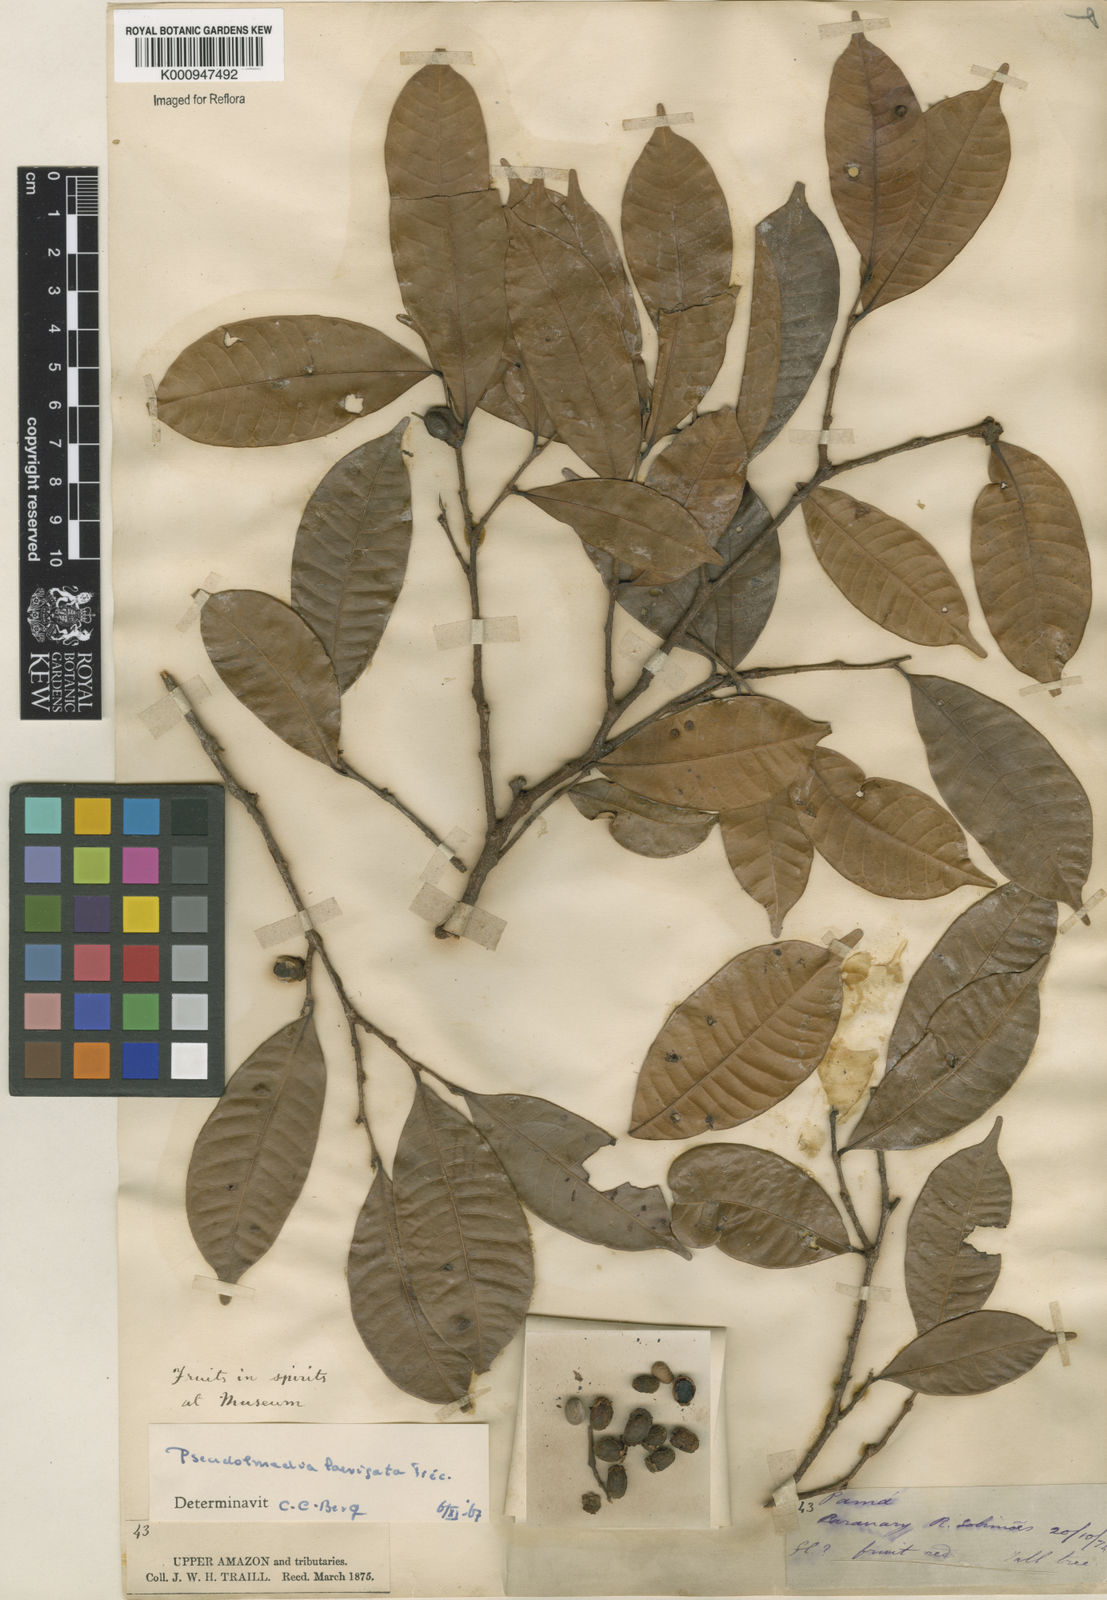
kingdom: Plantae
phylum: Tracheophyta
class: Magnoliopsida
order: Rosales
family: Moraceae
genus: Pseudolmedia
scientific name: Pseudolmedia
